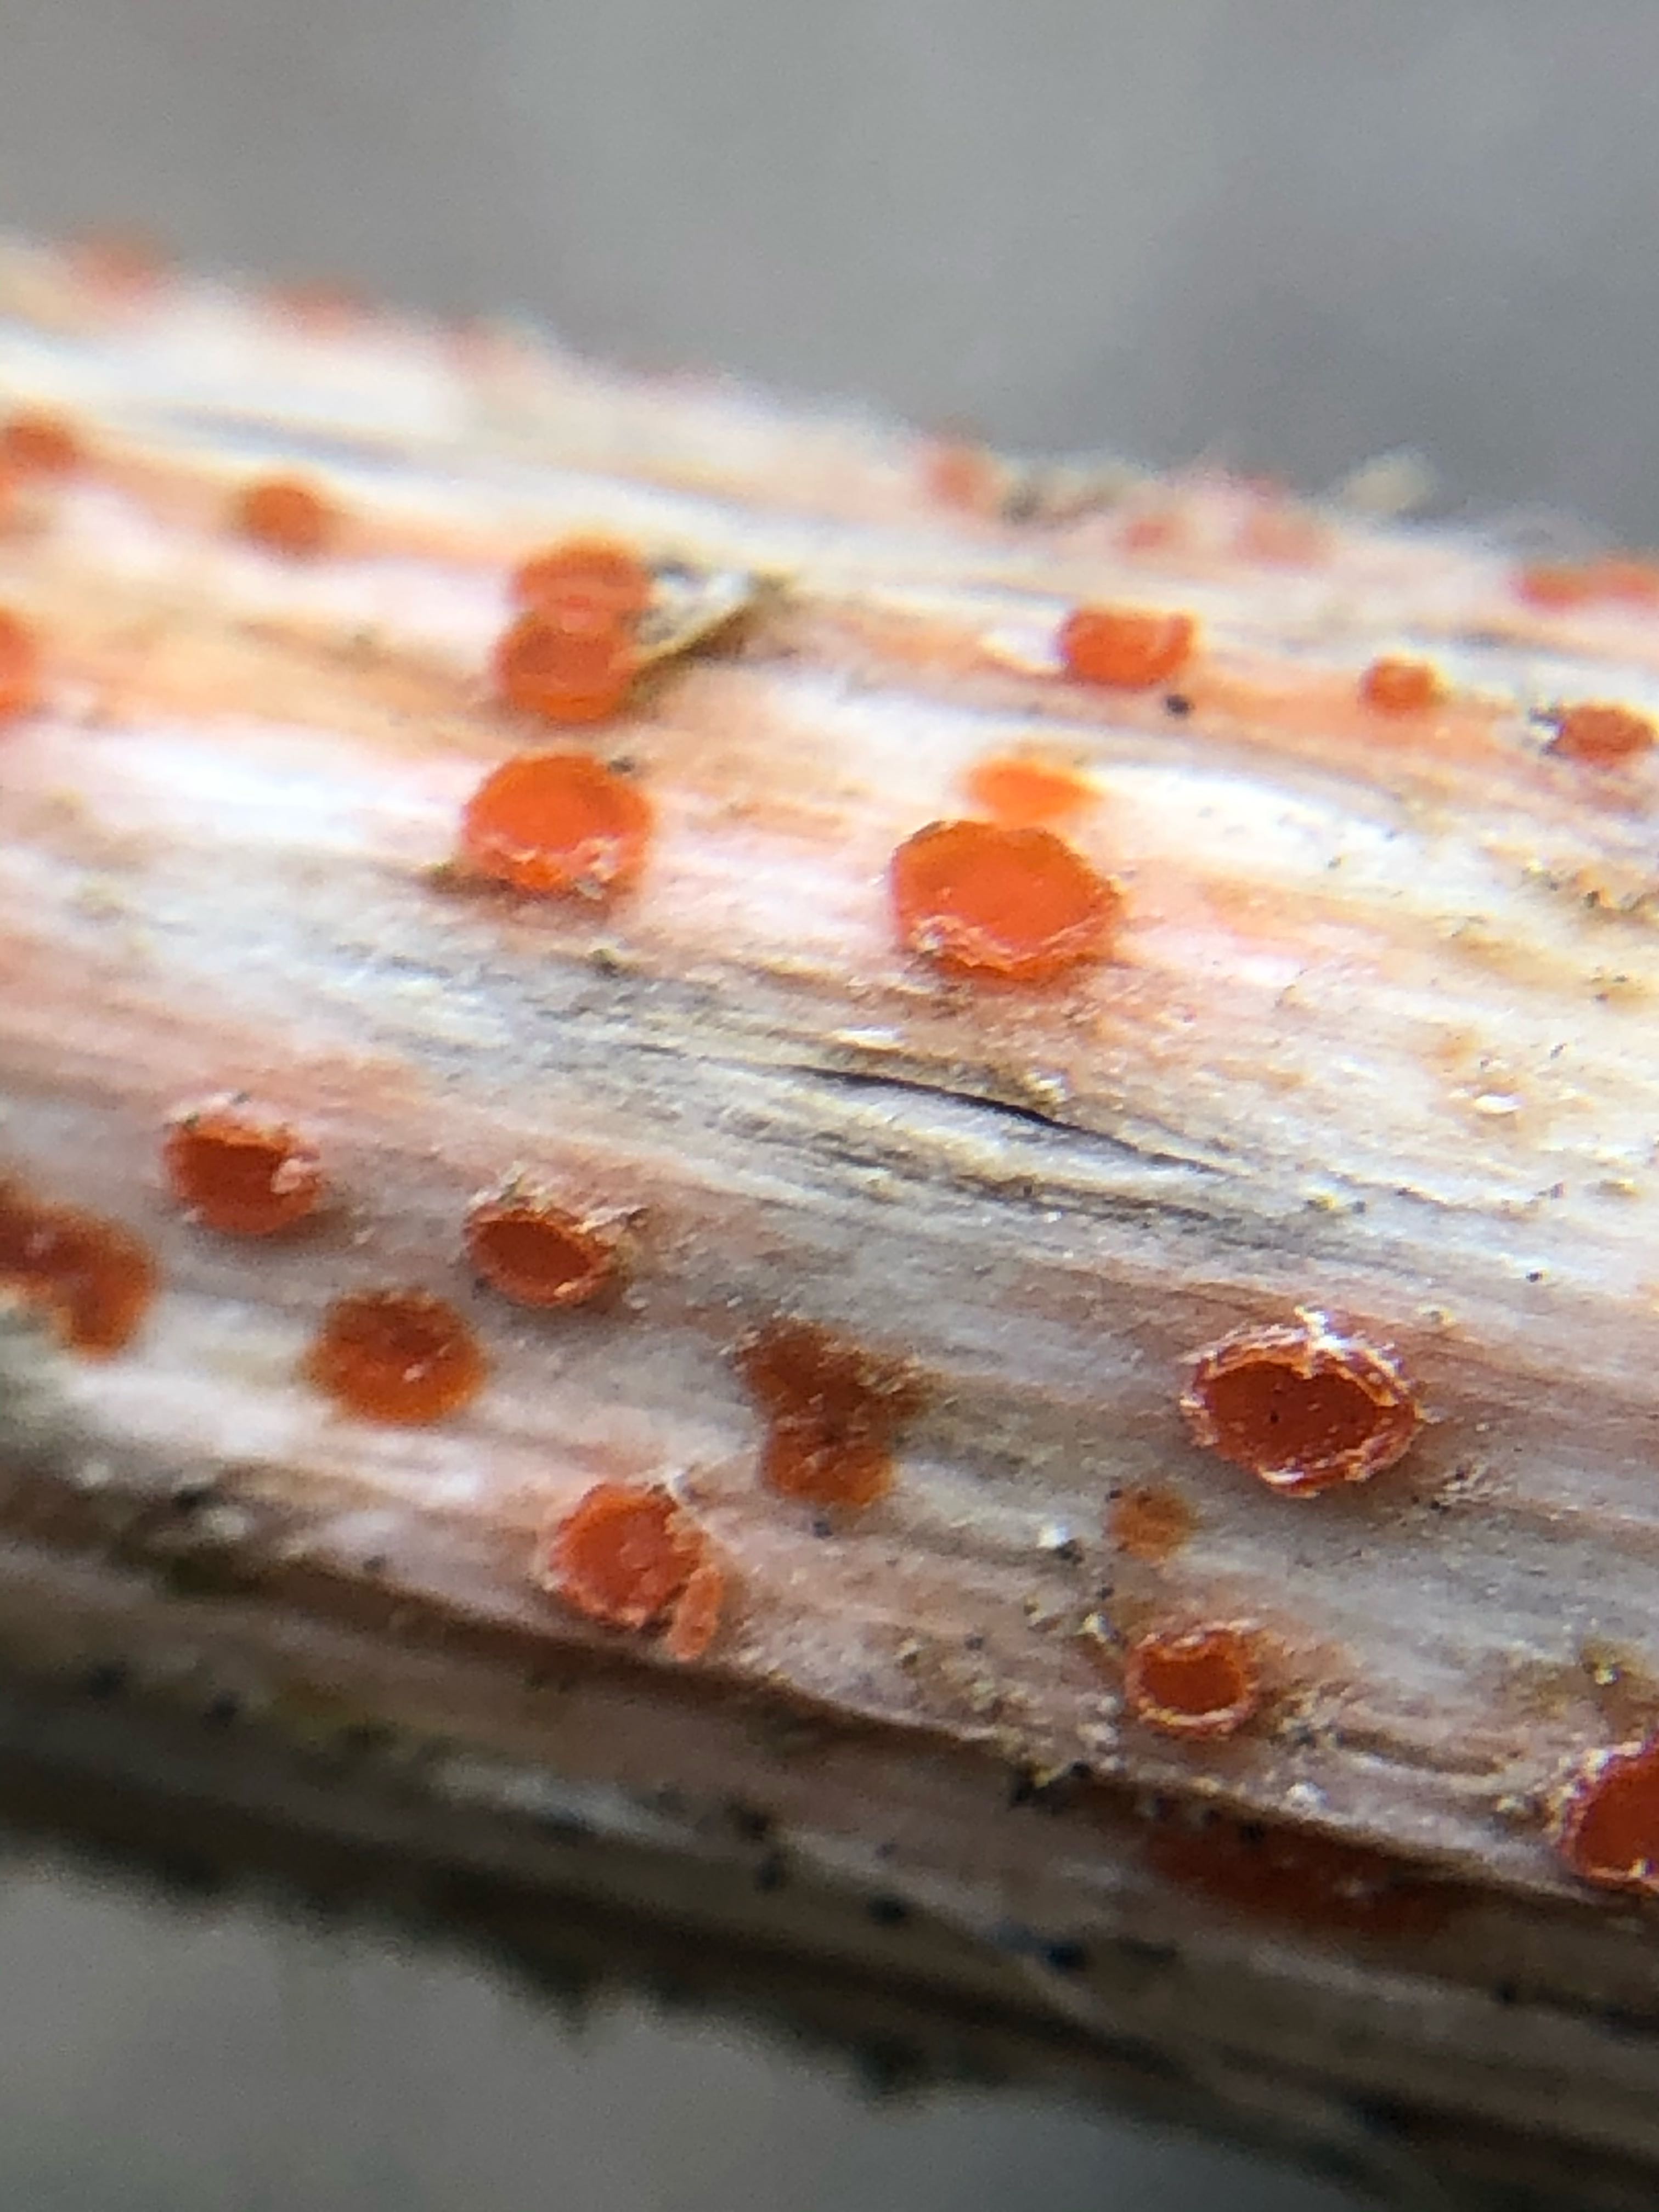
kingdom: Fungi
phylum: Ascomycota
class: Leotiomycetes
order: Helotiales
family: Calloriaceae
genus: Calloria
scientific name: Calloria urticae
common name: nælde-orangeskive
